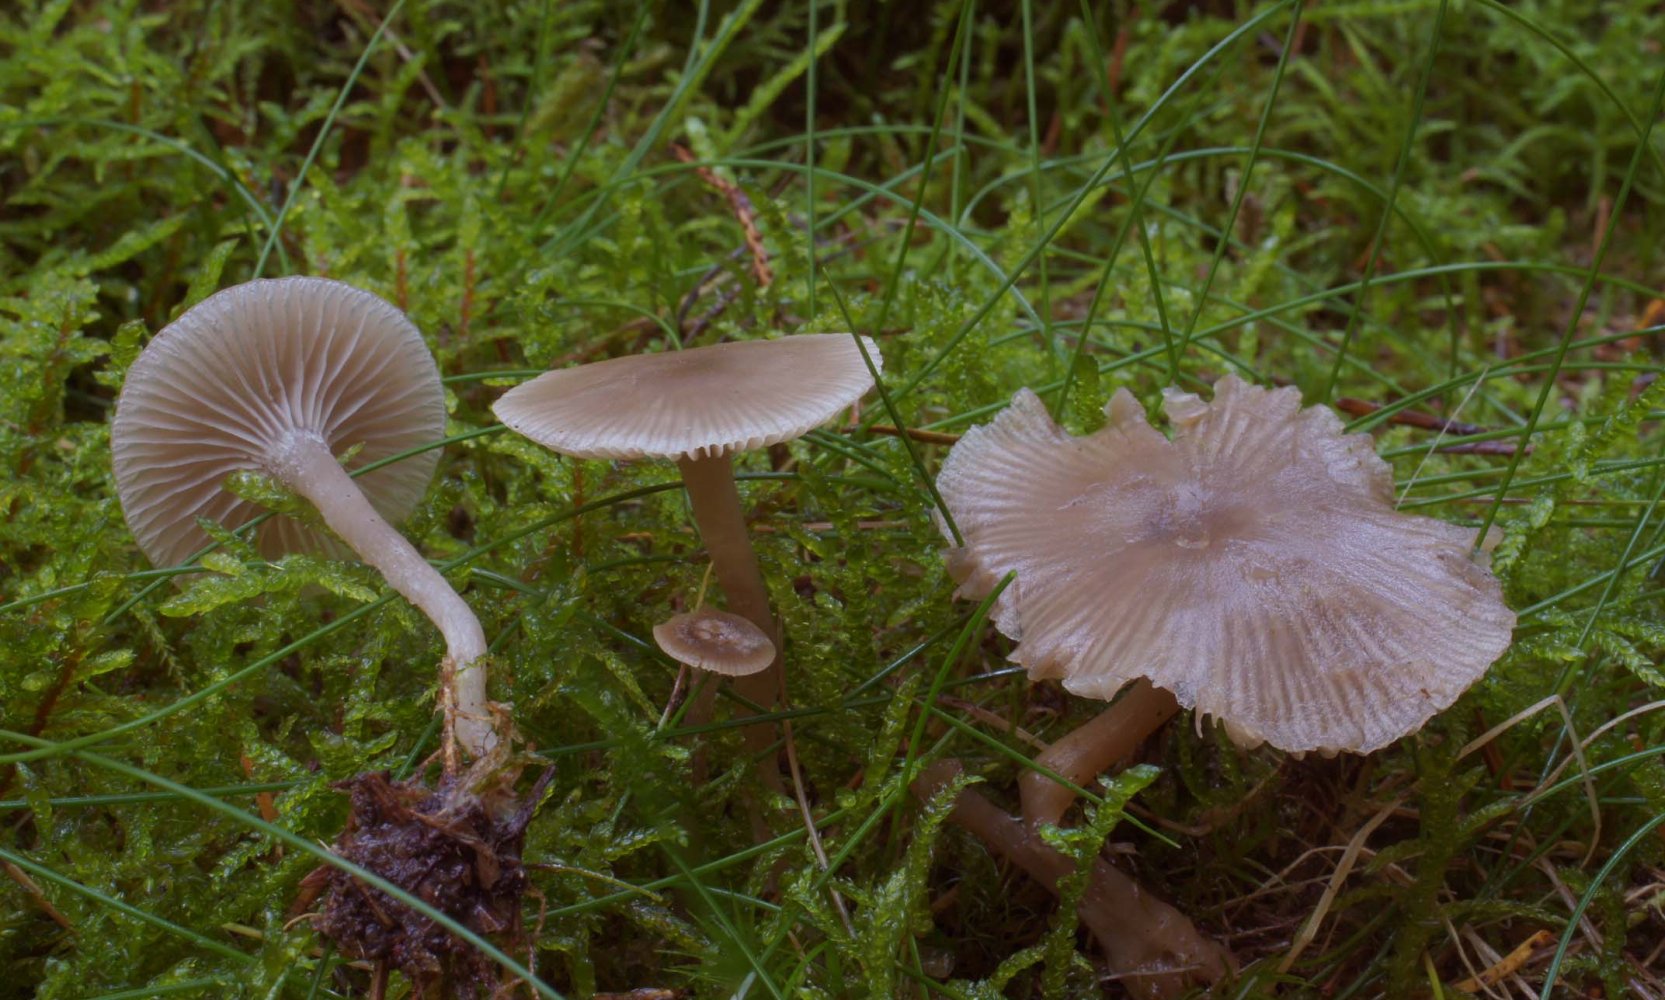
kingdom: Fungi
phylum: Basidiomycota
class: Agaricomycetes
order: Agaricales
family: Tricholomataceae
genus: Clitocybe
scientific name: Clitocybe vibecina
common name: randstribet tragthat
